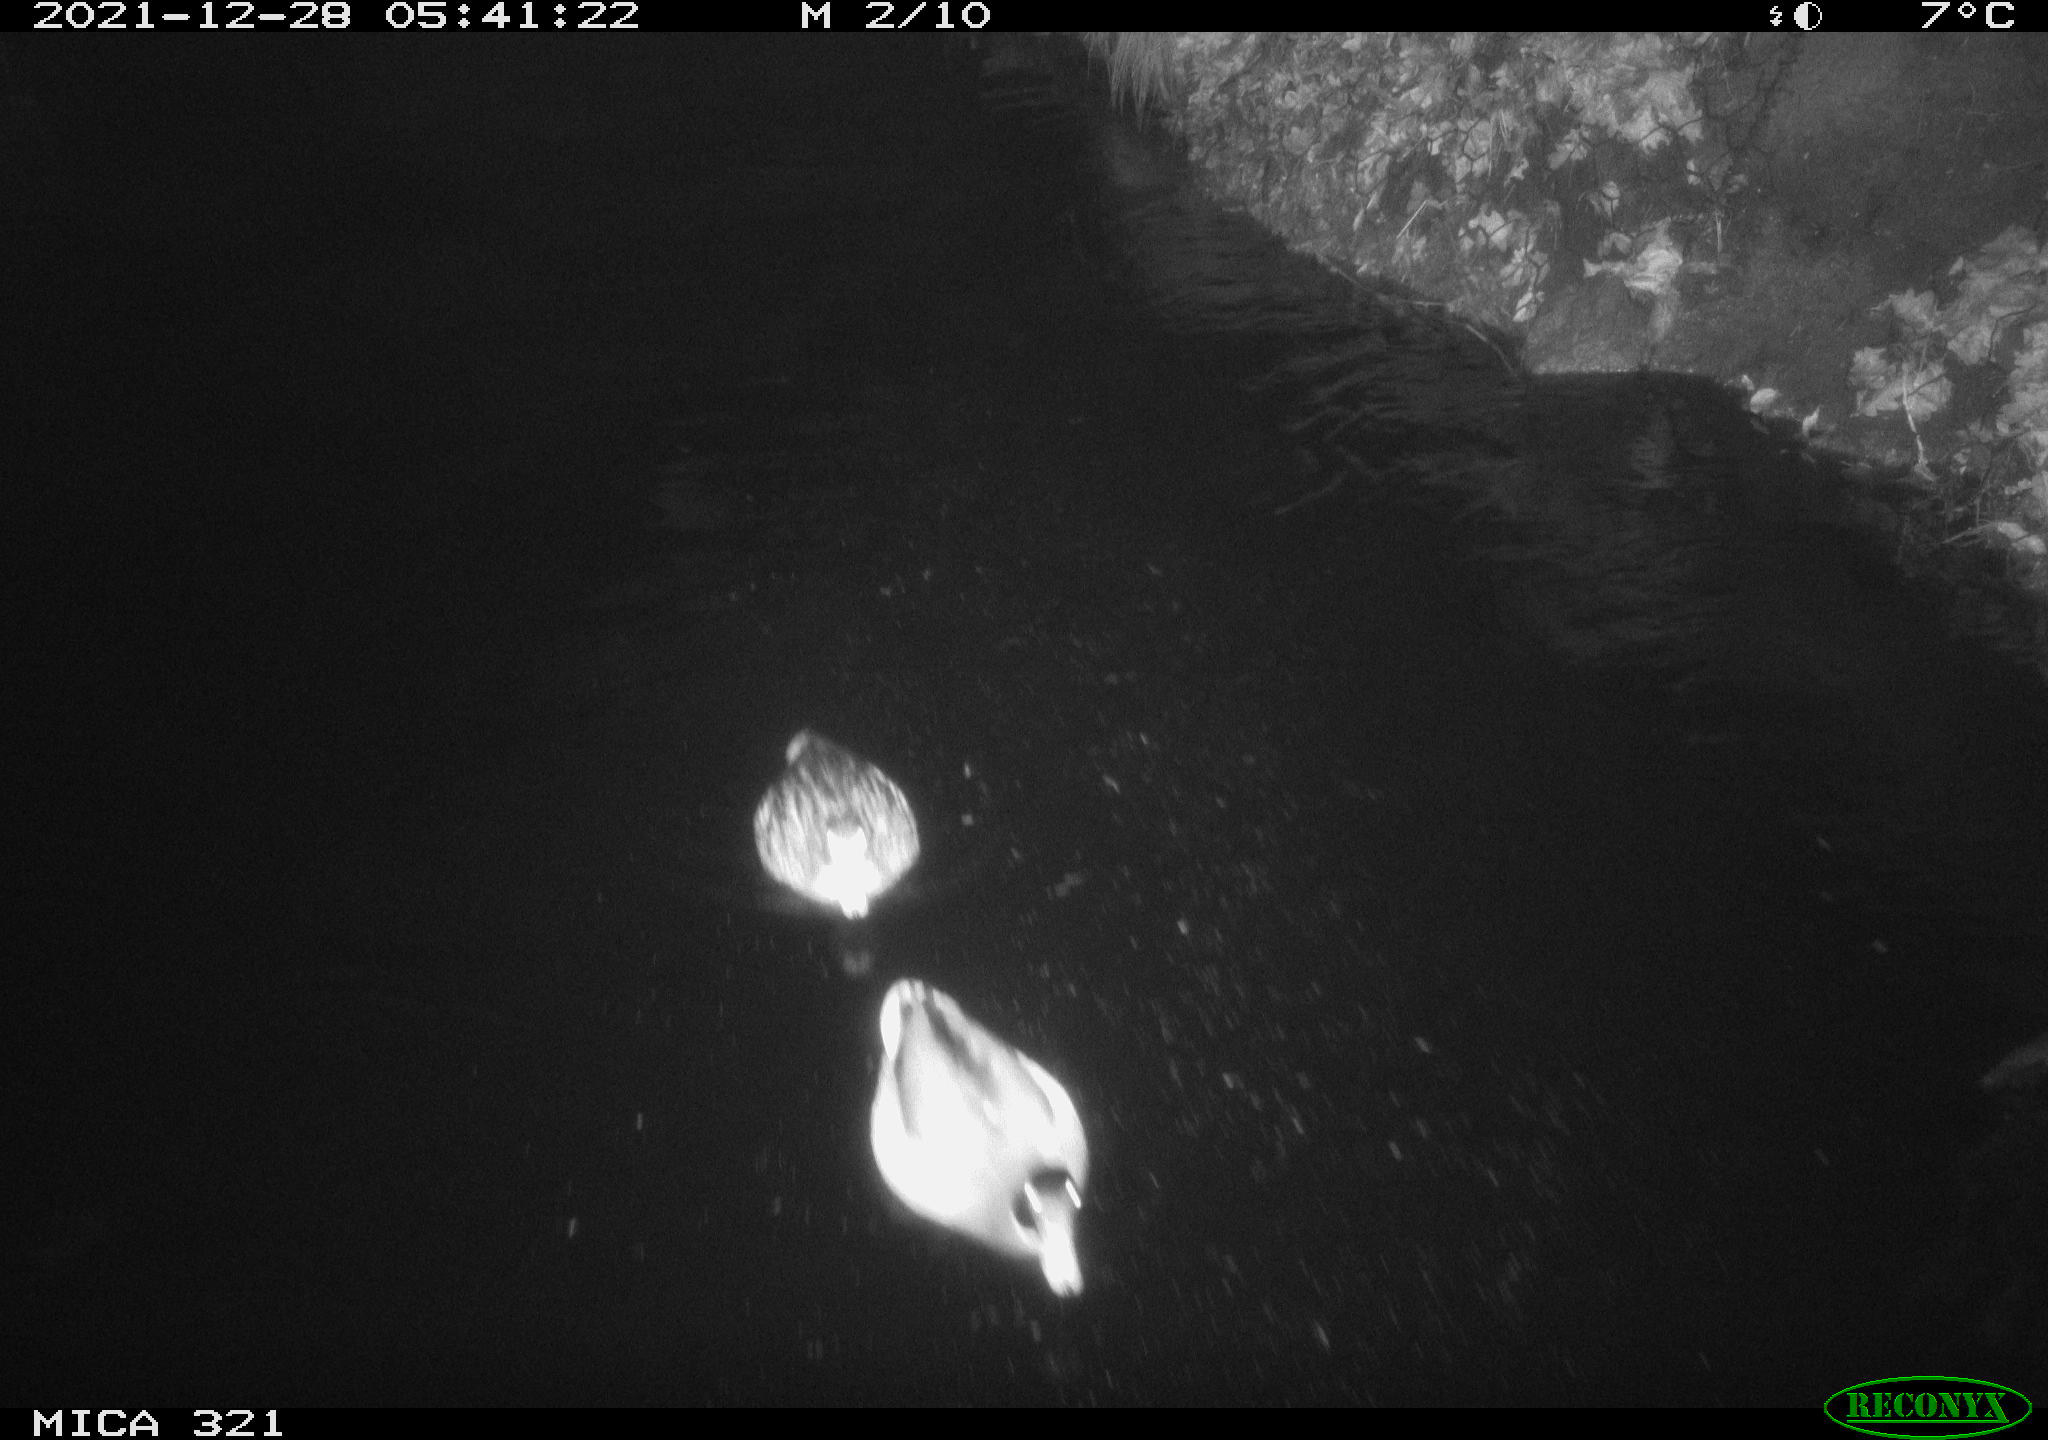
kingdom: Animalia
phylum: Chordata
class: Aves
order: Anseriformes
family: Anatidae
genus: Anas
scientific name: Anas
